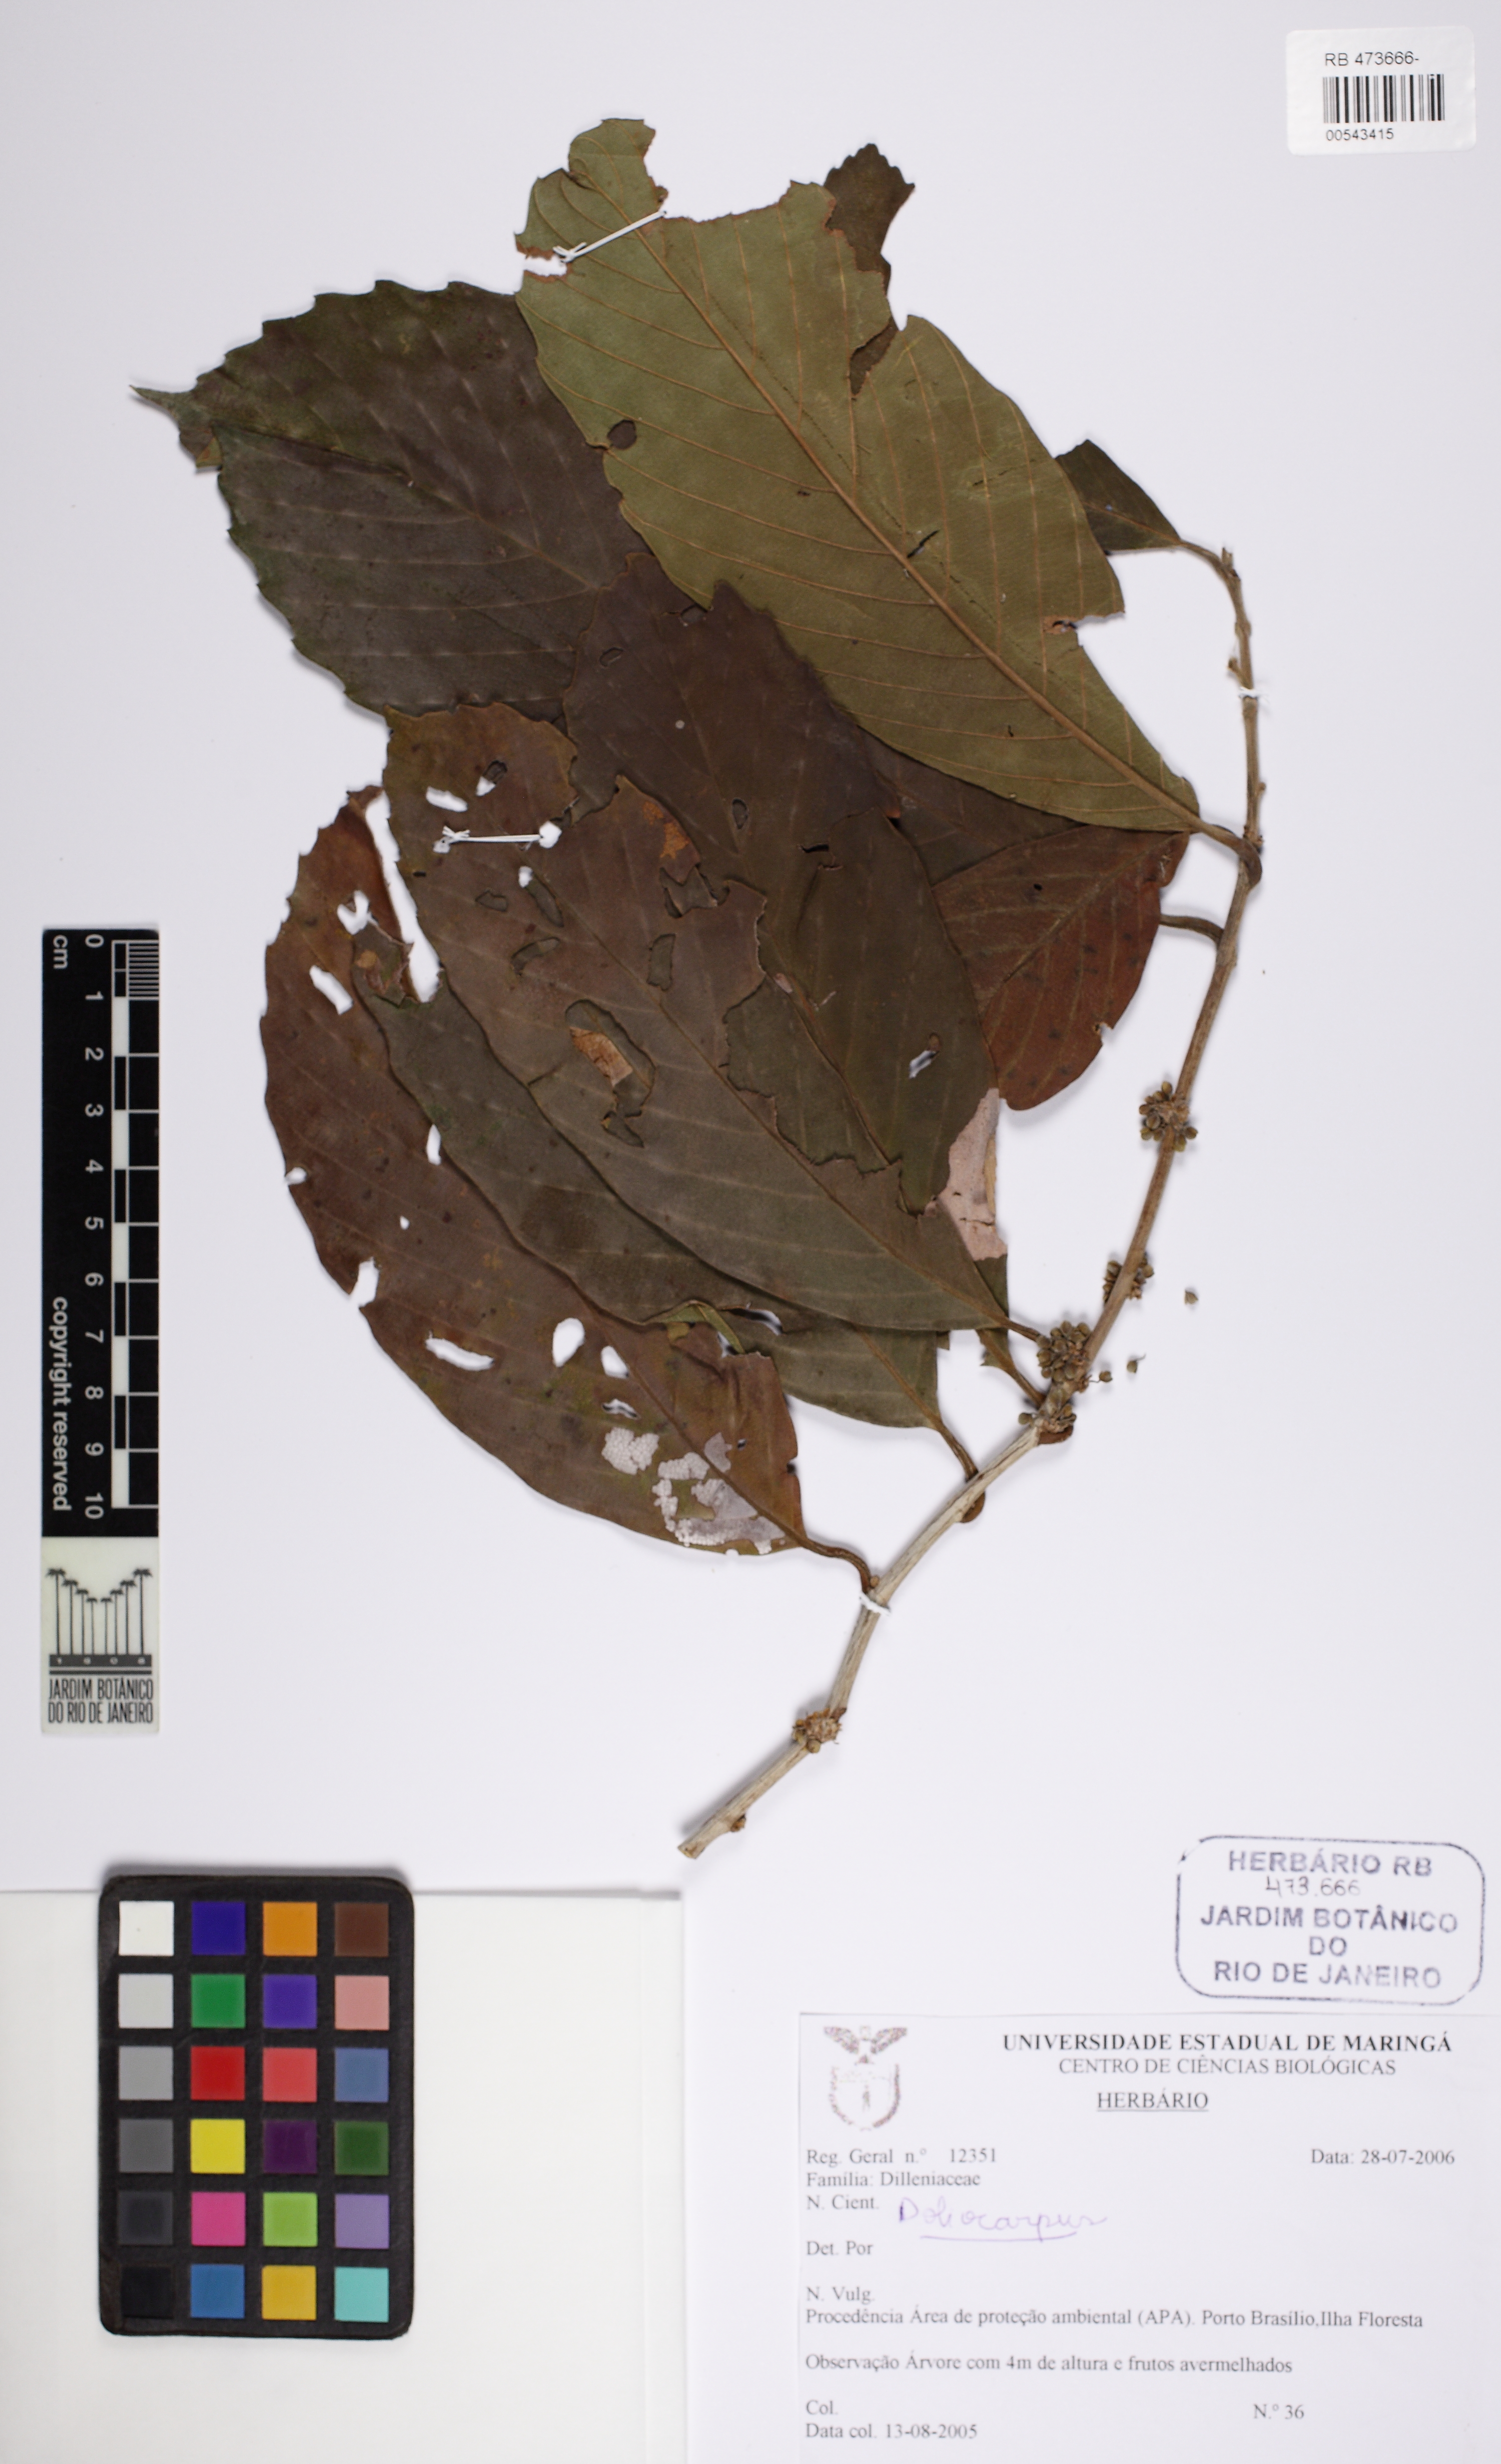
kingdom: Plantae
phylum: Tracheophyta
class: Magnoliopsida
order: Dilleniales
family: Dilleniaceae
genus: Doliocarpus
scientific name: Doliocarpus dentatus
